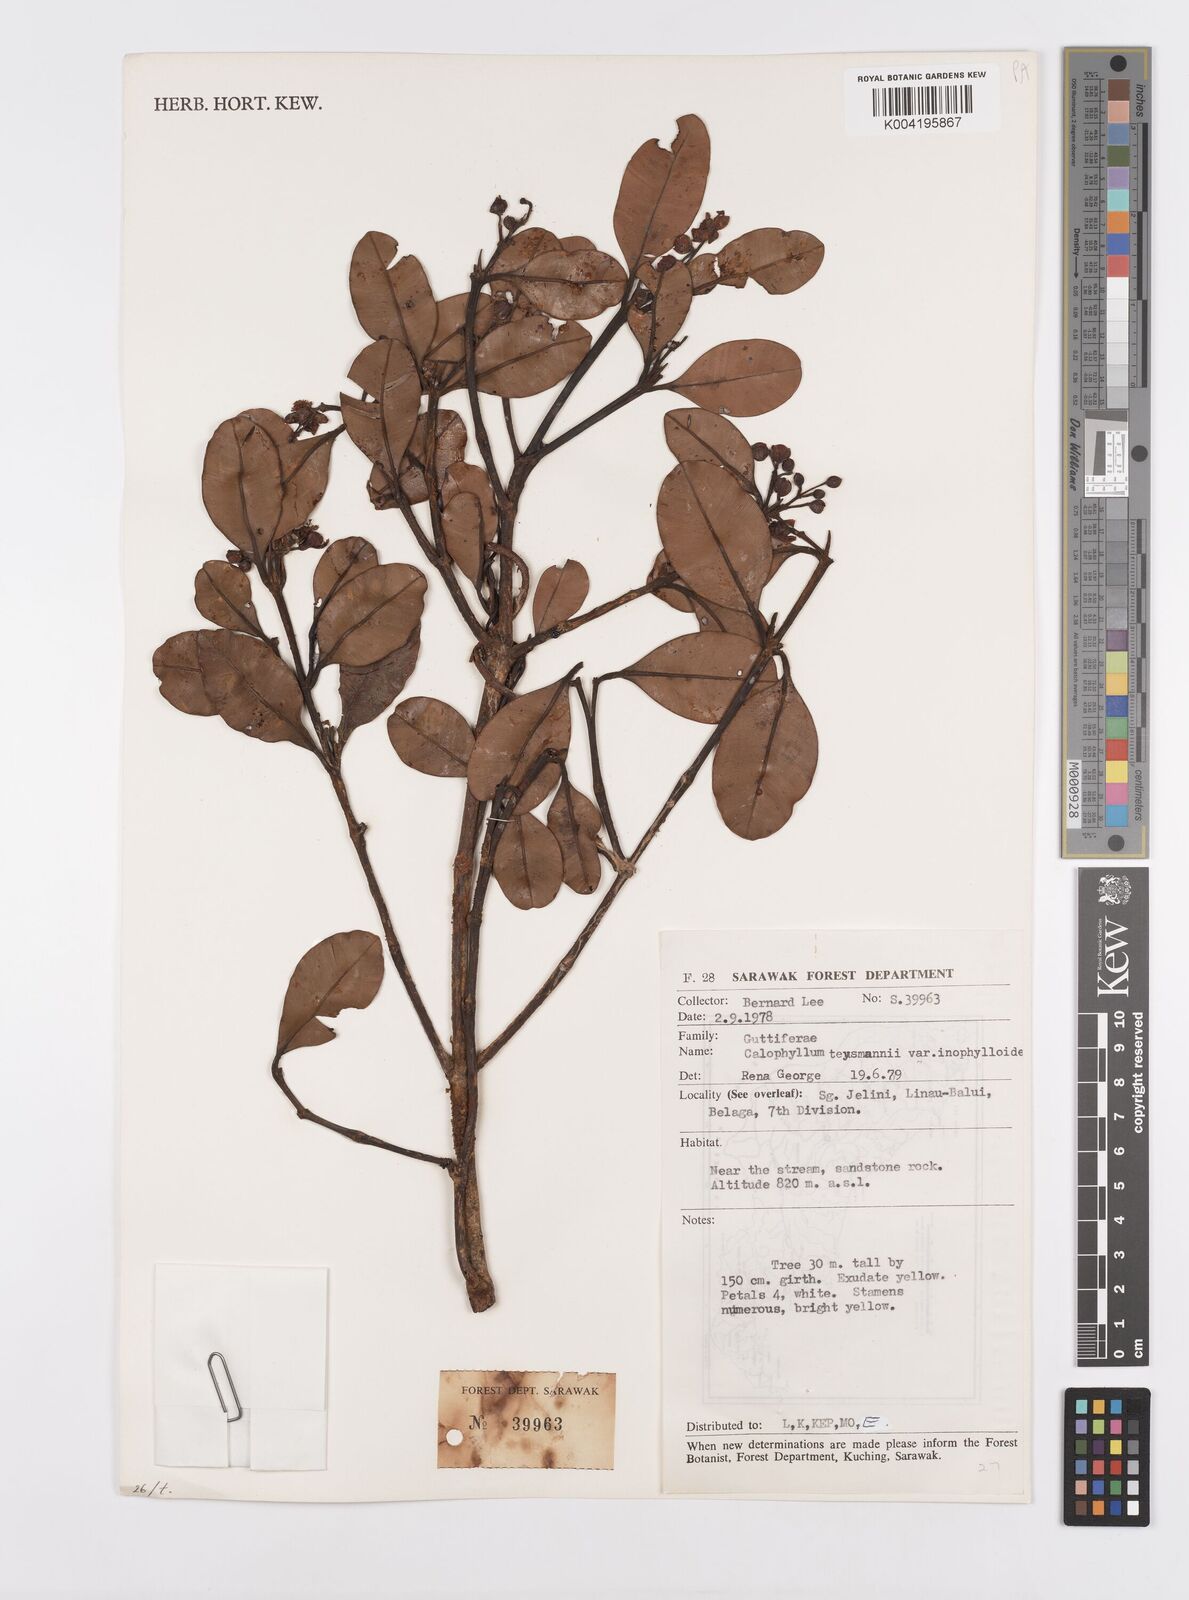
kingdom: Plantae
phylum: Tracheophyta
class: Magnoliopsida
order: Malpighiales
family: Calophyllaceae
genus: Calophyllum
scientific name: Calophyllum teysmannii
